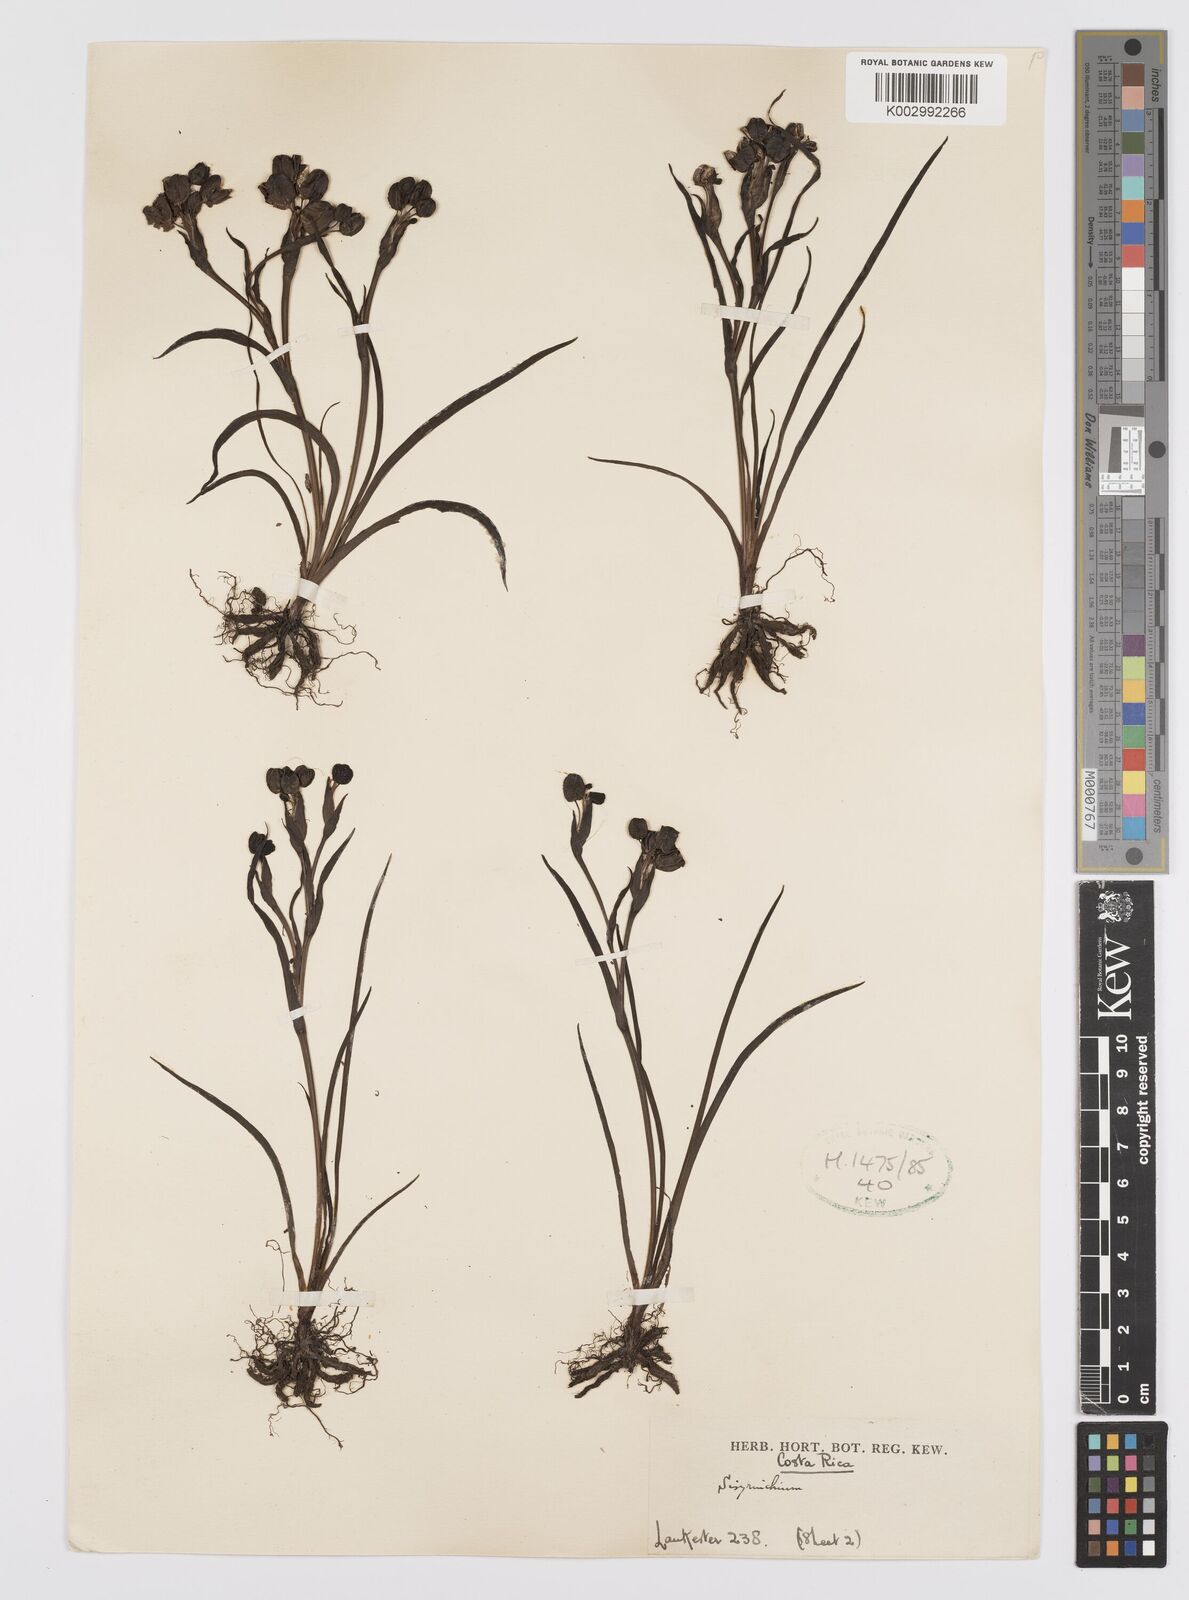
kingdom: Plantae
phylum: Tracheophyta
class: Liliopsida
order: Asparagales
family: Iridaceae
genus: Sisyrinchium
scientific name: Sisyrinchium
